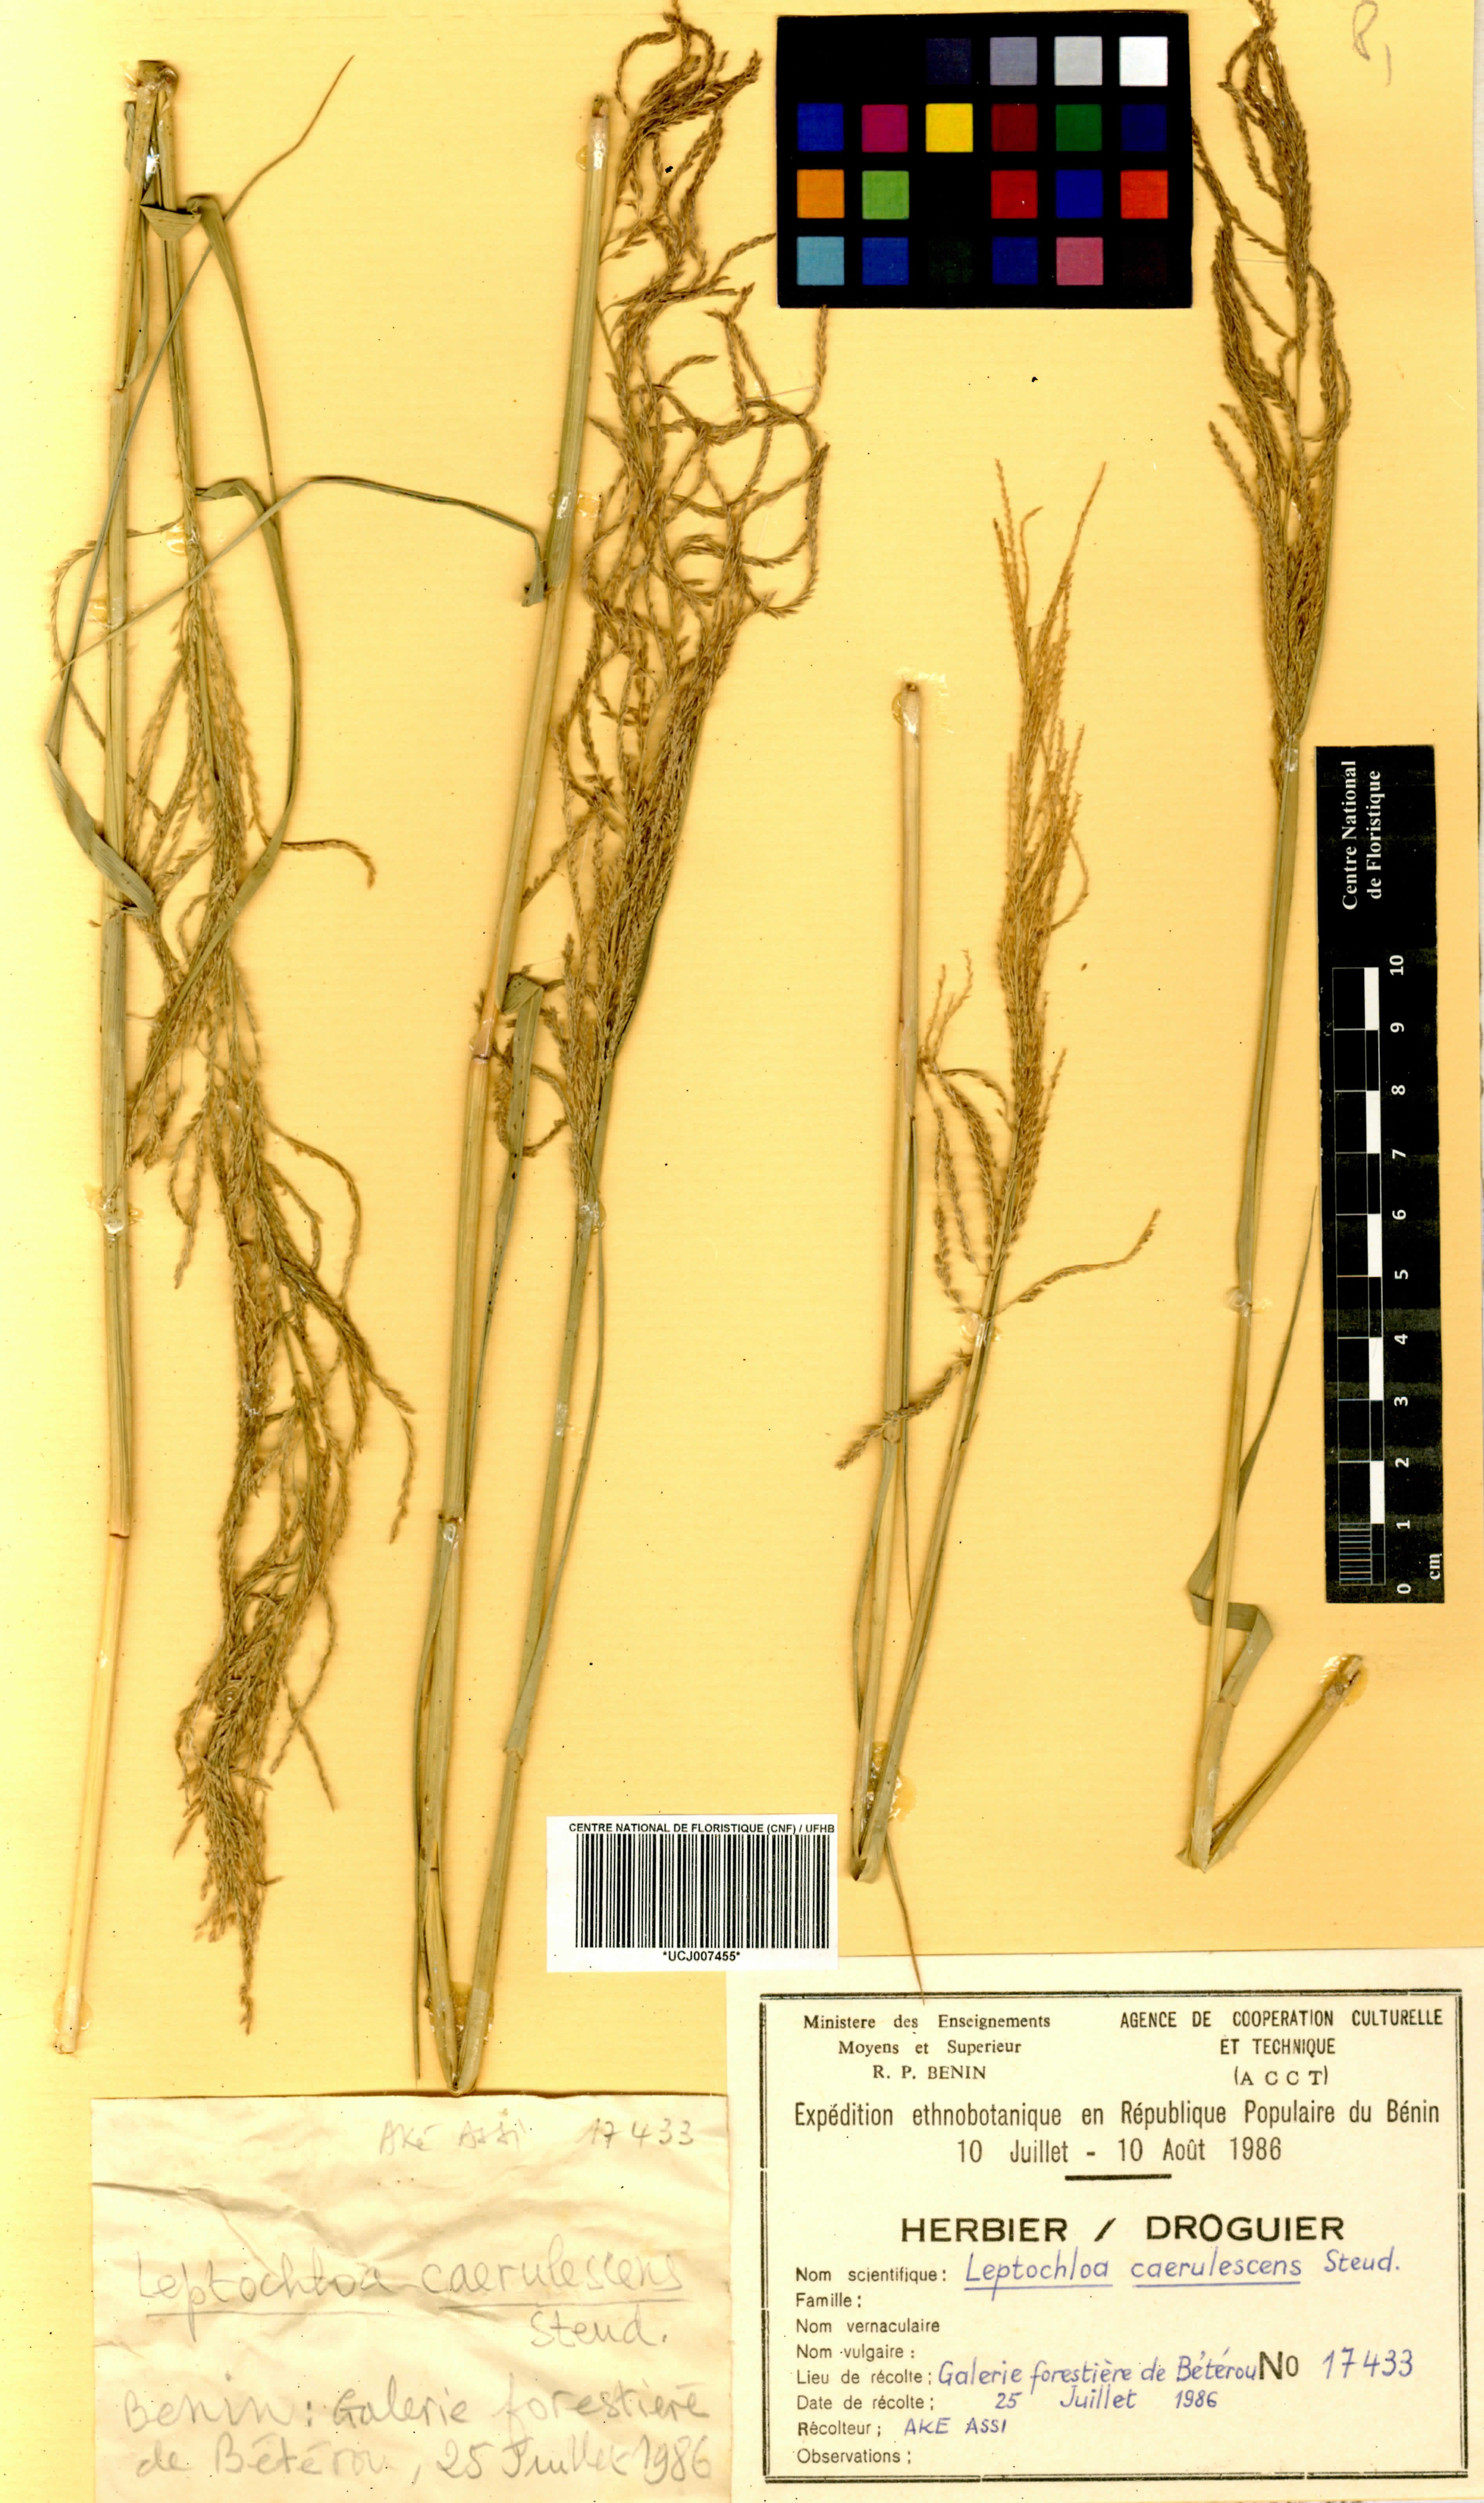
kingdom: Plantae
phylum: Tracheophyta
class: Liliopsida
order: Poales
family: Poaceae
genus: Leptochloa
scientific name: Leptochloa caerulescens
